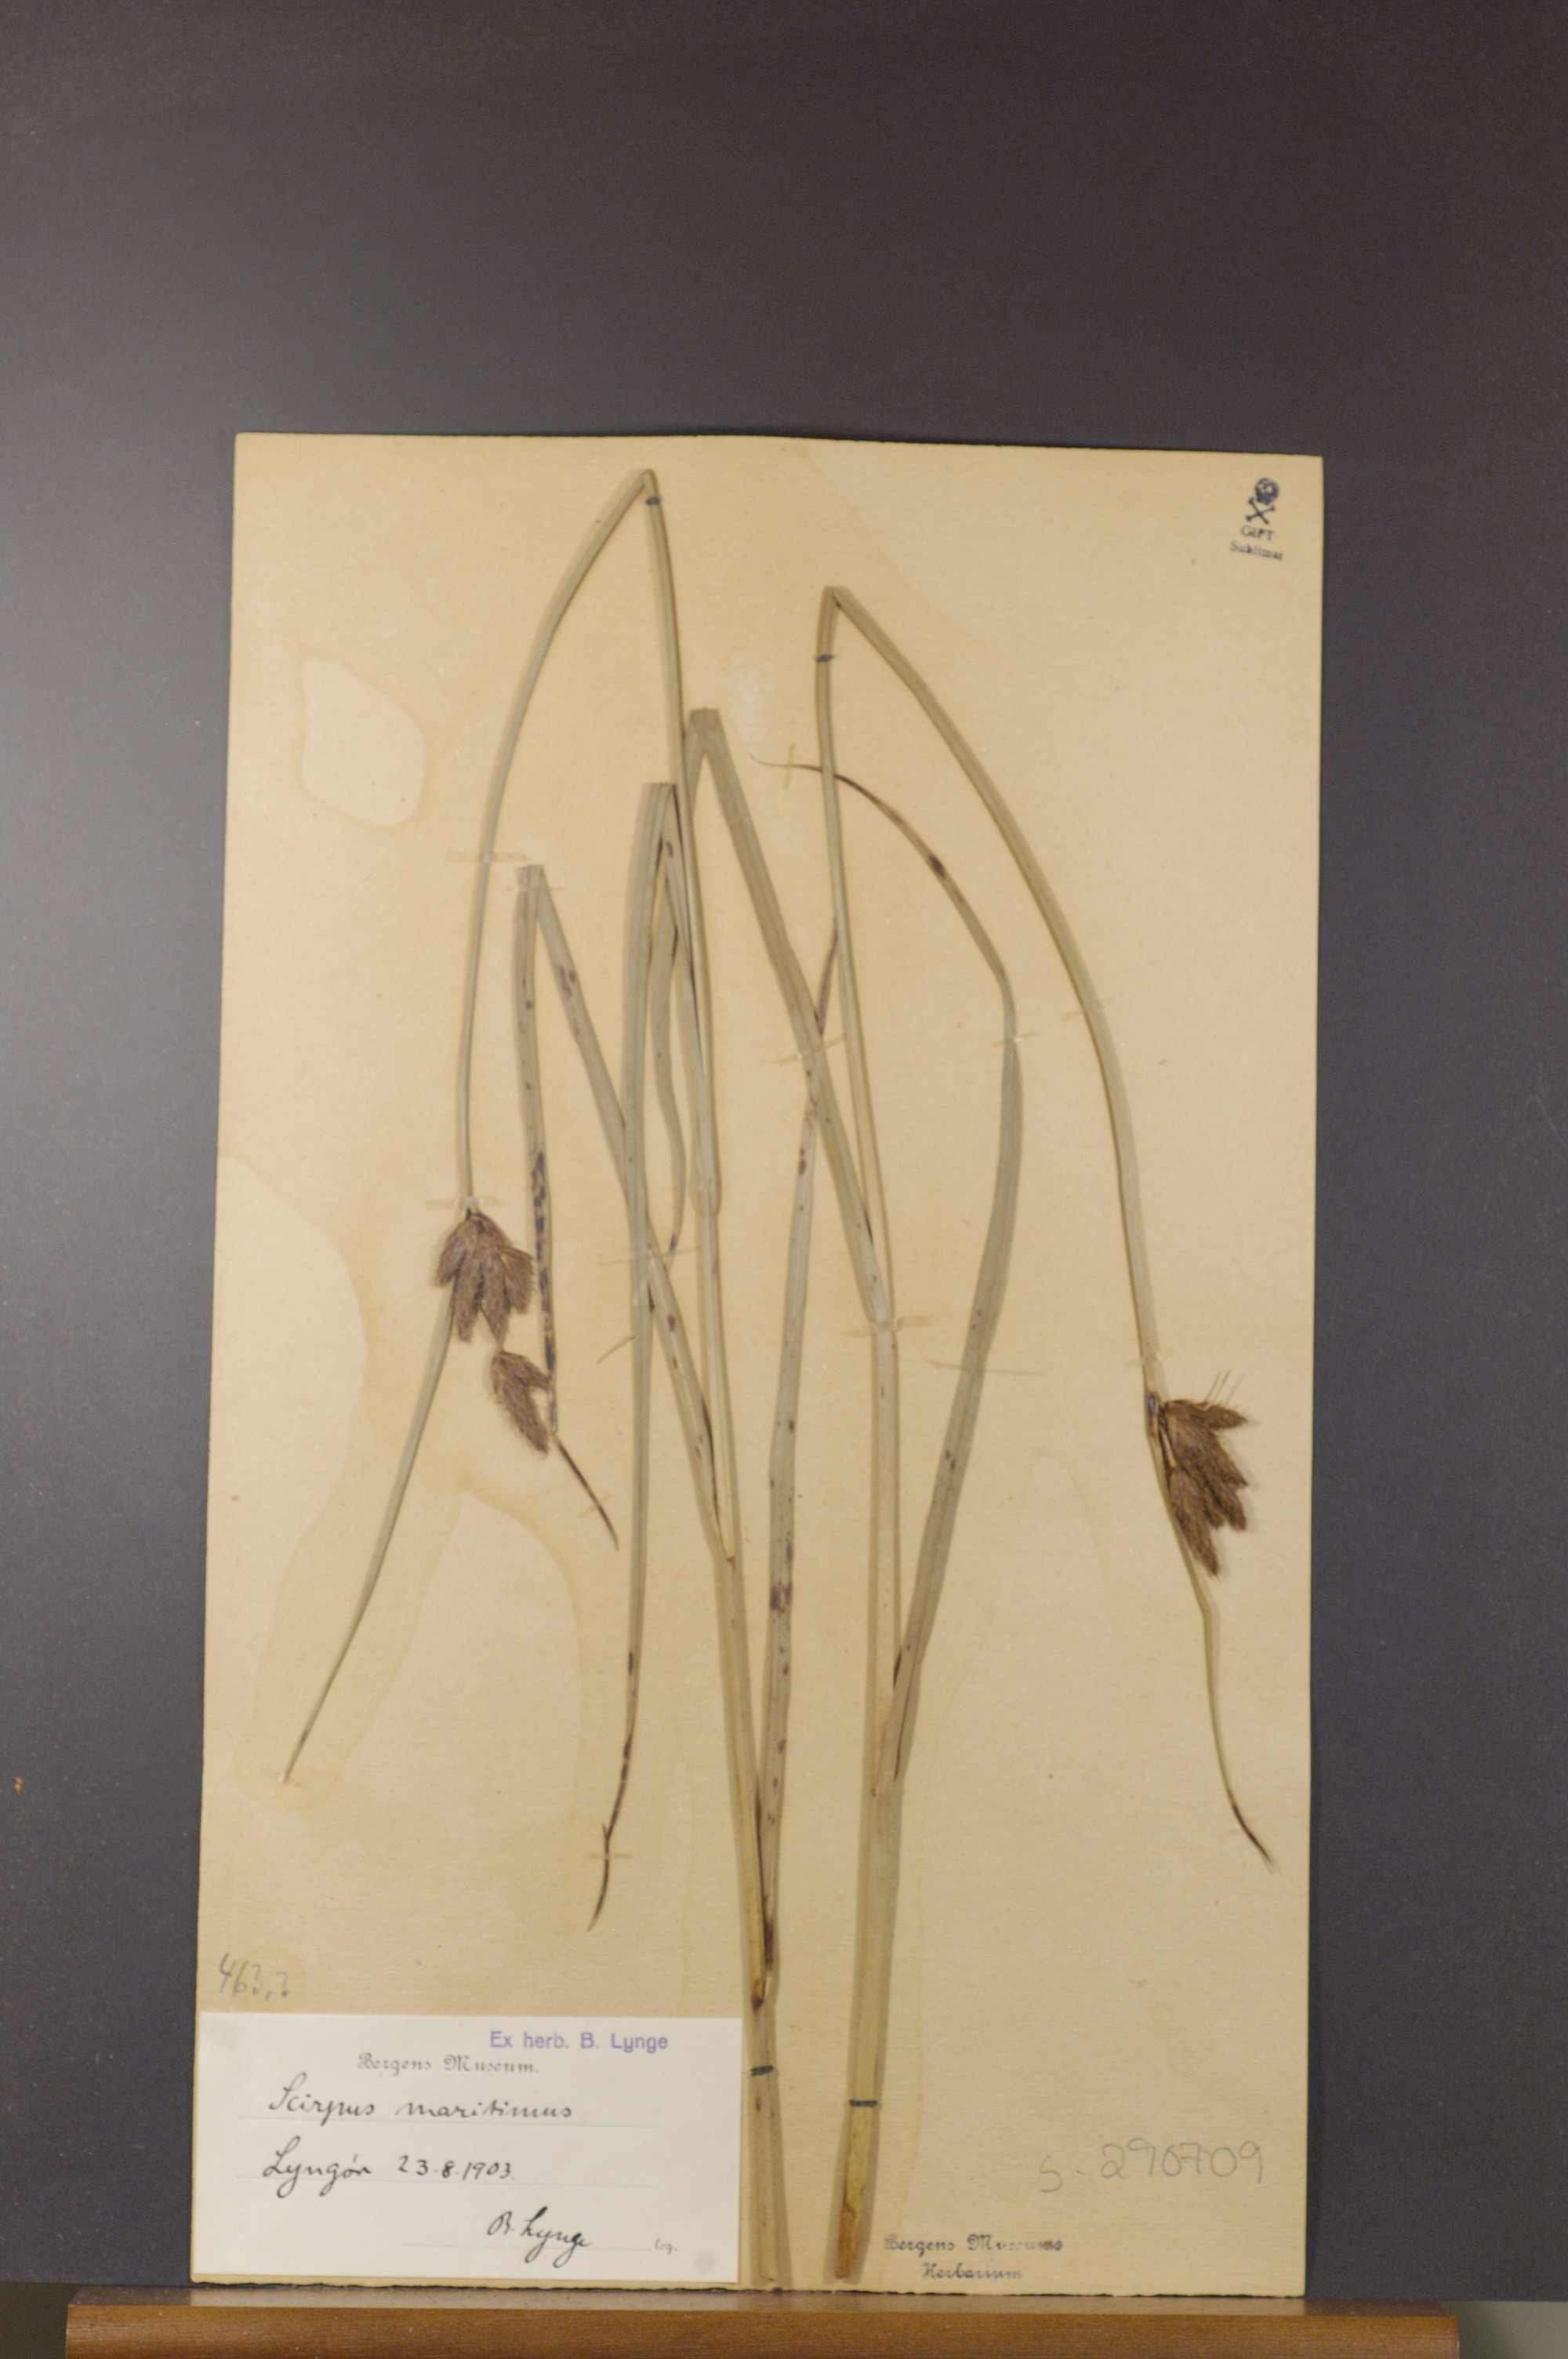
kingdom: Plantae
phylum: Tracheophyta
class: Liliopsida
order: Poales
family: Cyperaceae
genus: Bolboschoenus
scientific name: Bolboschoenus maritimus
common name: Sea club-rush
